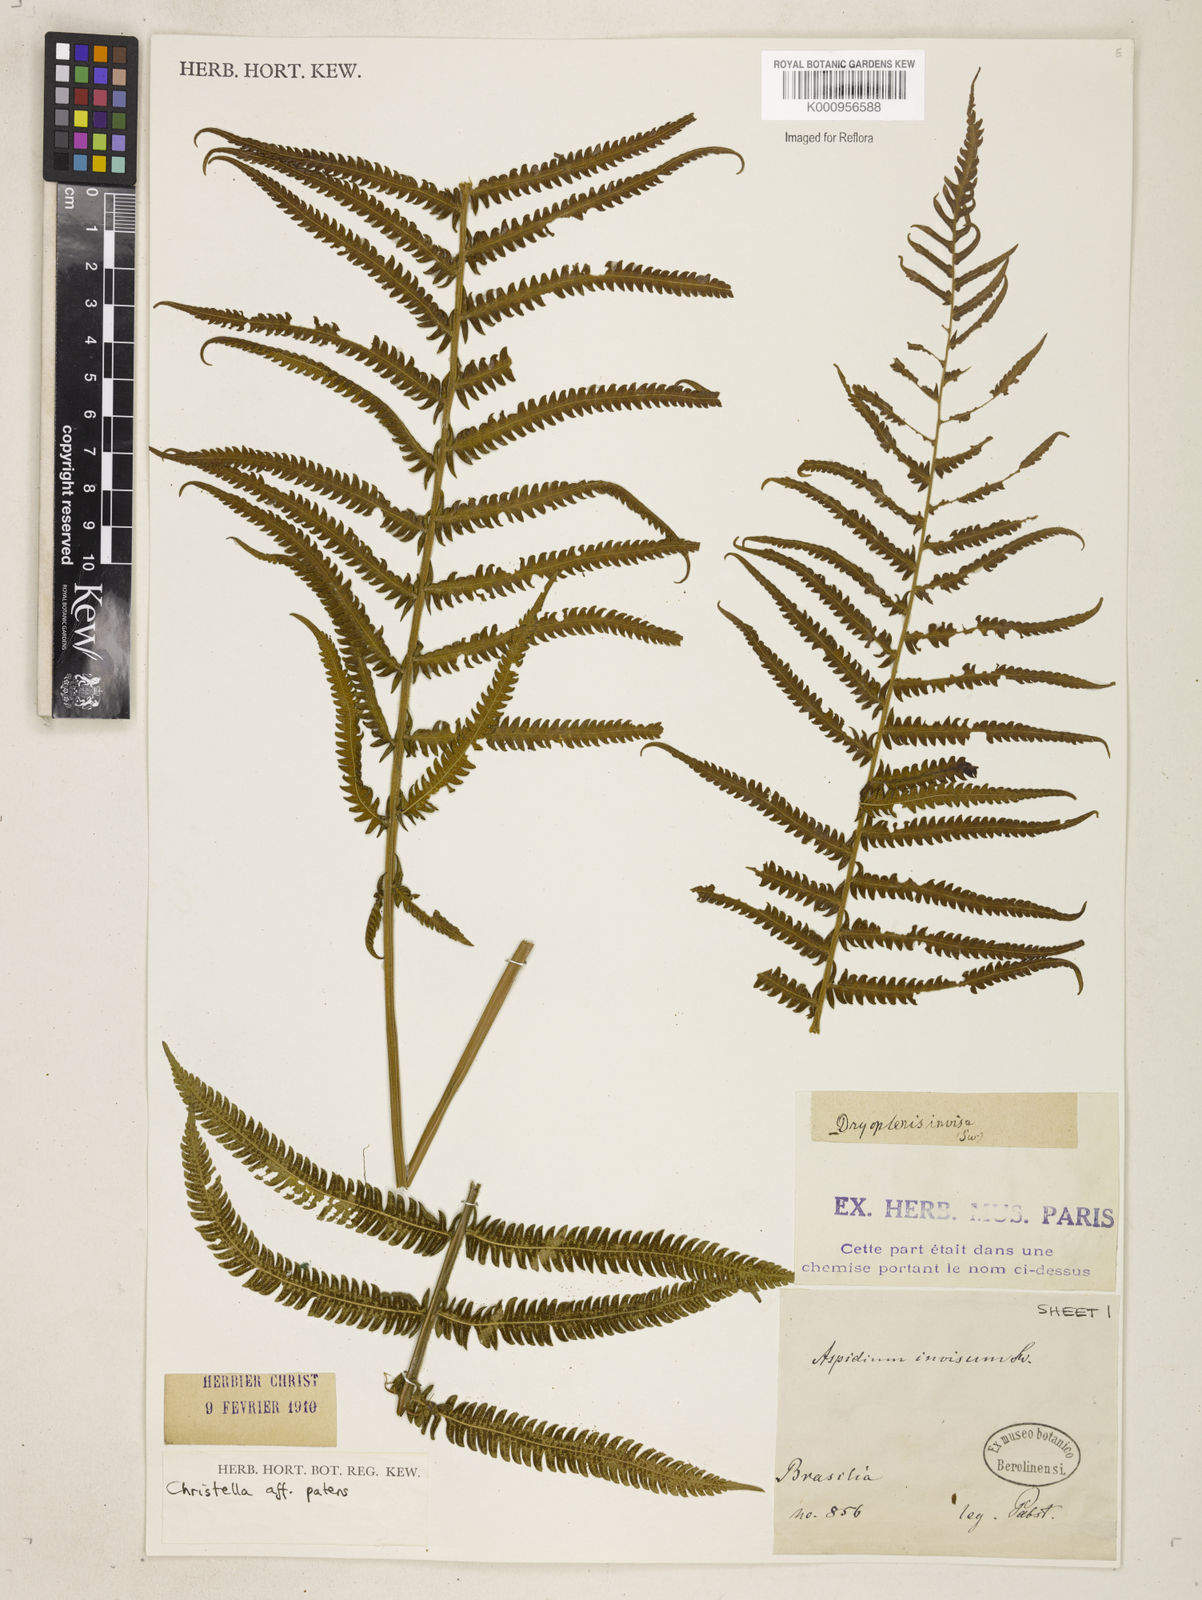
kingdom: Plantae
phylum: Tracheophyta
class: Polypodiopsida
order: Polypodiales
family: Thelypteridaceae
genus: Pelazoneuron
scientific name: Pelazoneuron patens
